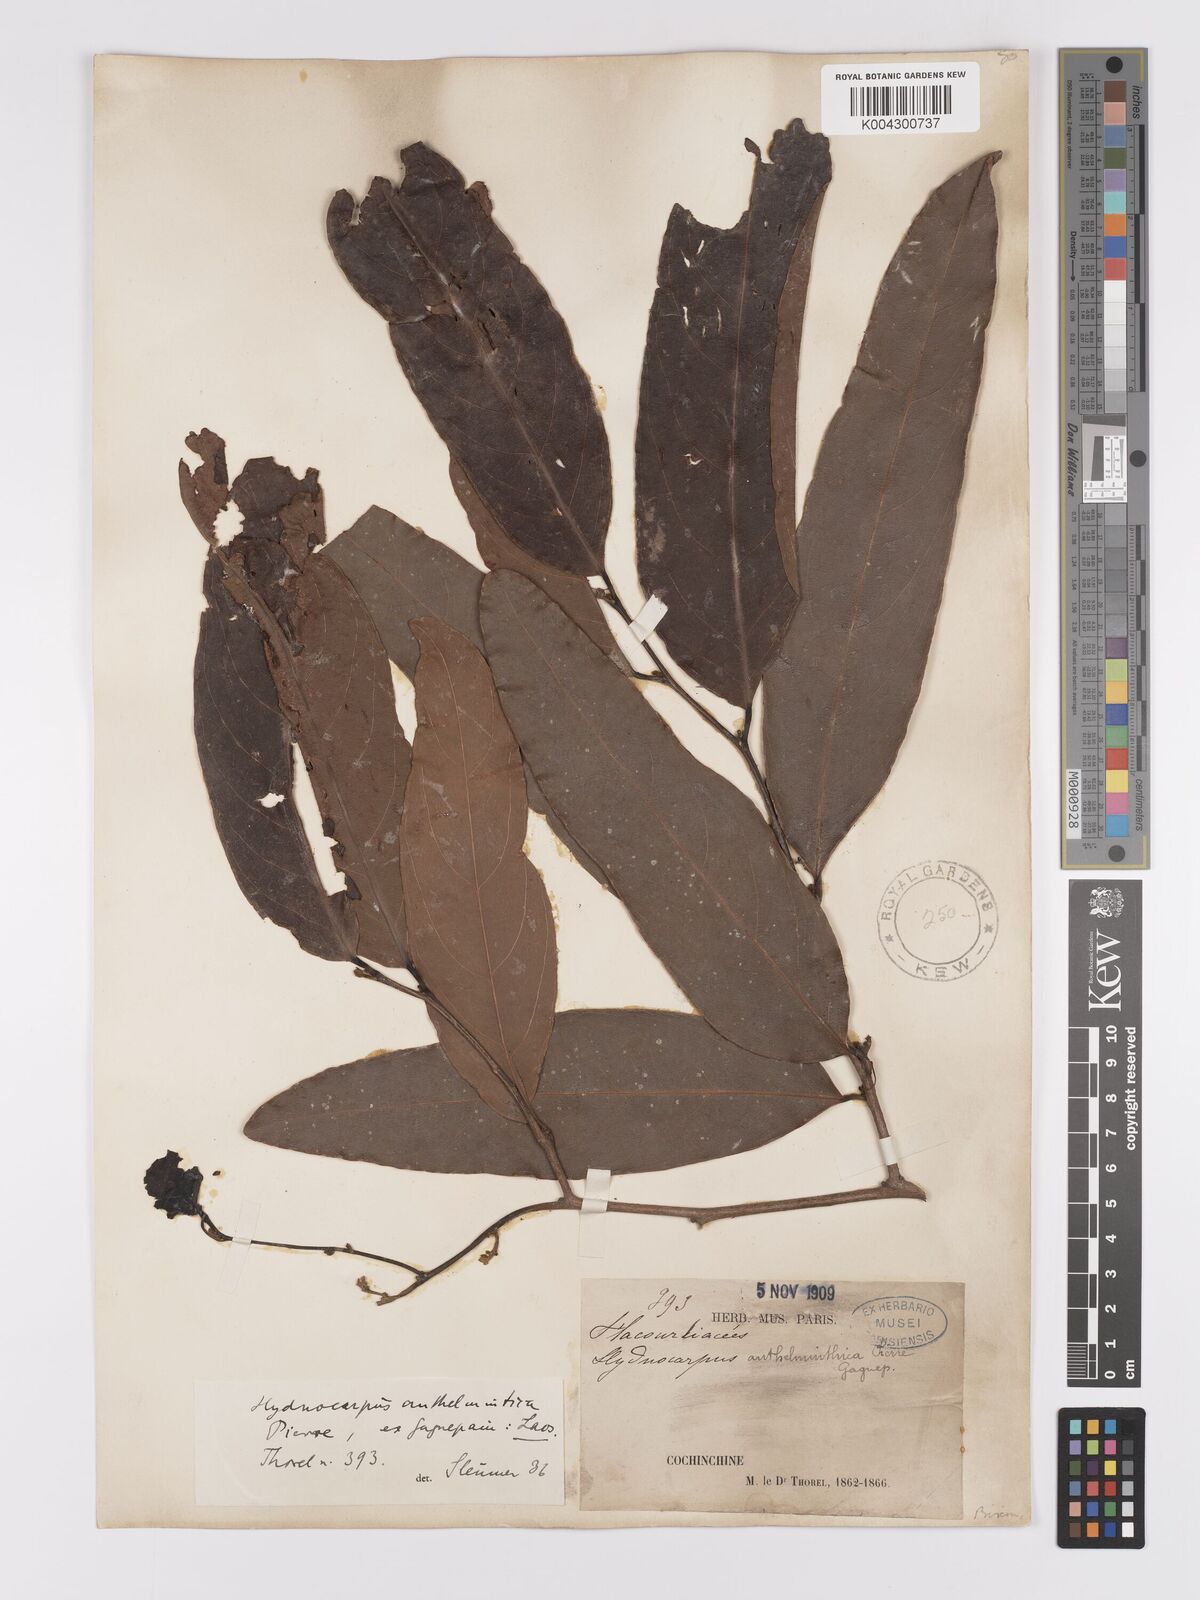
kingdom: Plantae
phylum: Tracheophyta
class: Magnoliopsida
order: Malpighiales
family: Achariaceae
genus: Hydnocarpus
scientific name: Hydnocarpus
